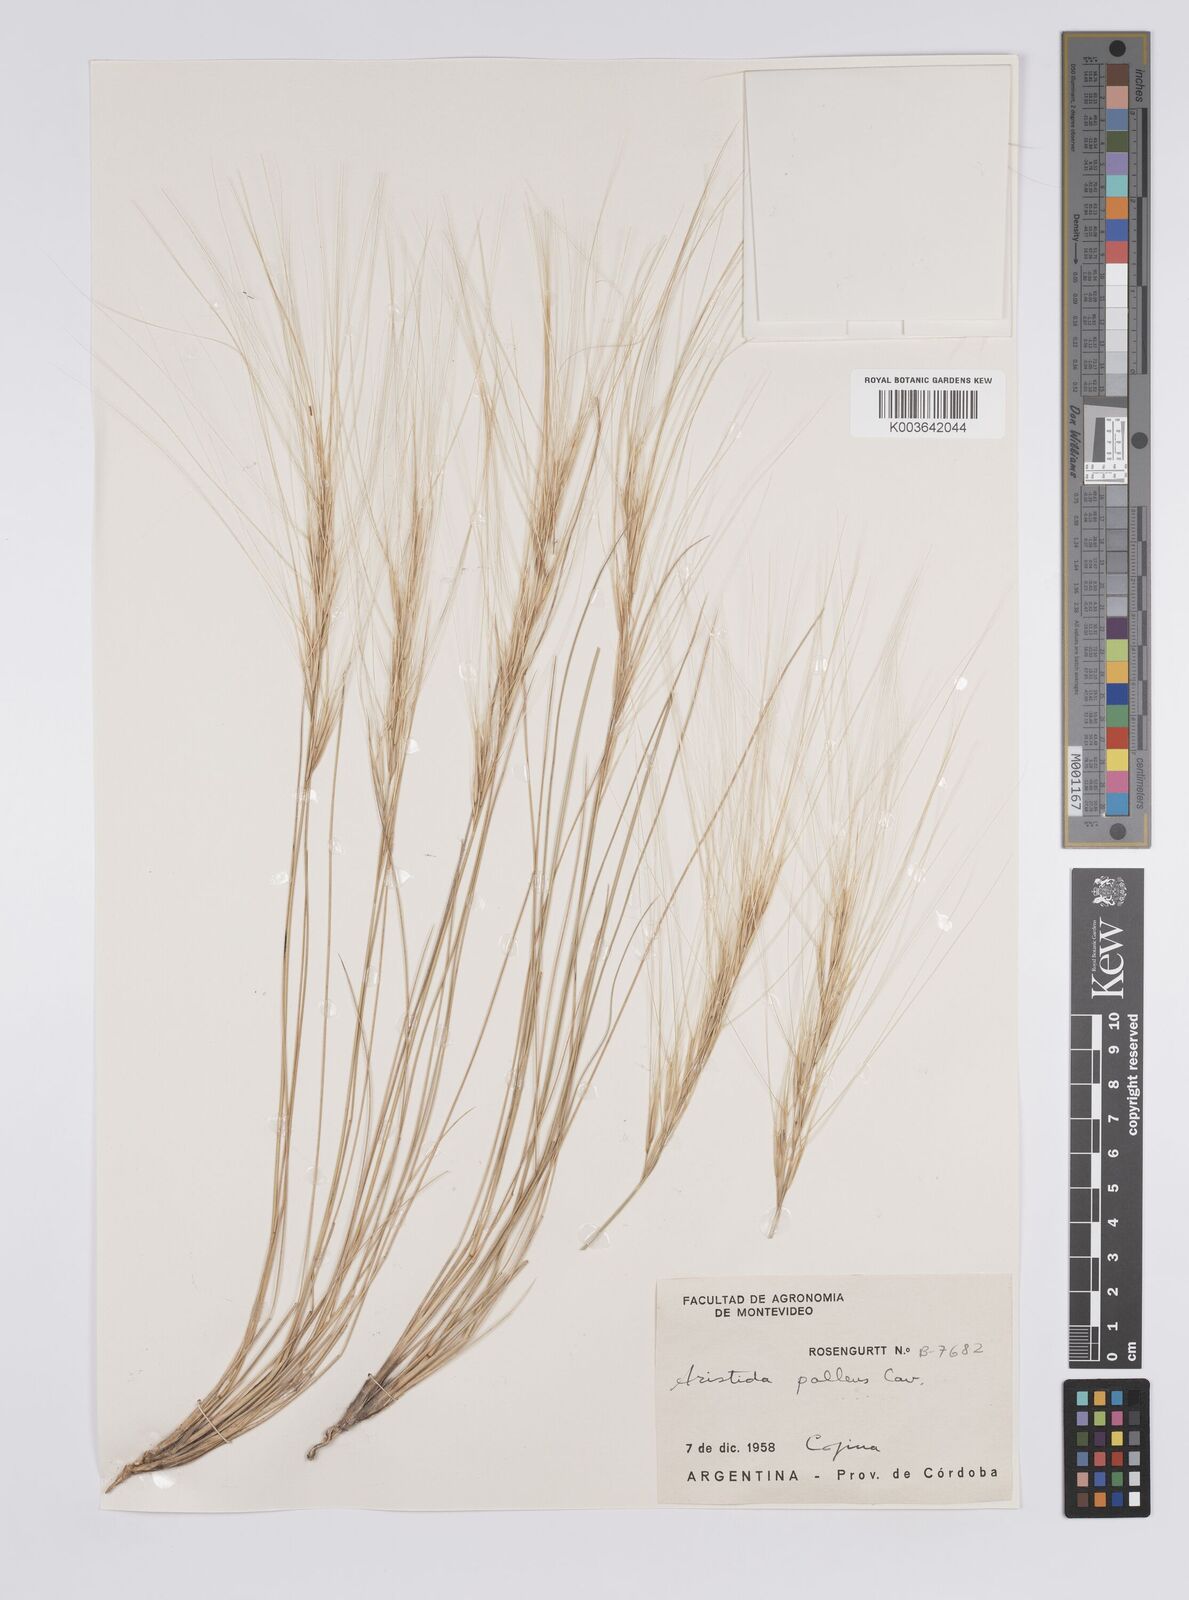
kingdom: Plantae
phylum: Tracheophyta
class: Liliopsida
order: Poales
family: Poaceae
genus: Aristida
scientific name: Aristida pallens
